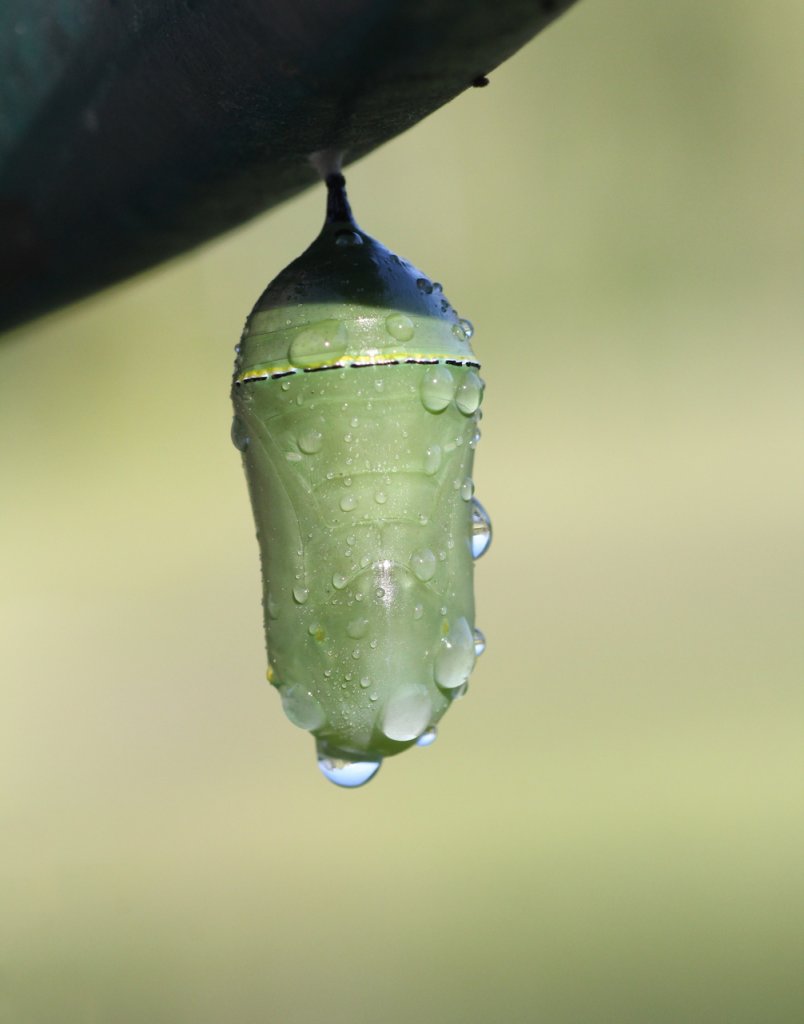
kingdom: Animalia
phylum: Arthropoda
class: Insecta
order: Lepidoptera
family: Nymphalidae
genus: Danaus
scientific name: Danaus plexippus
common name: Monarch
